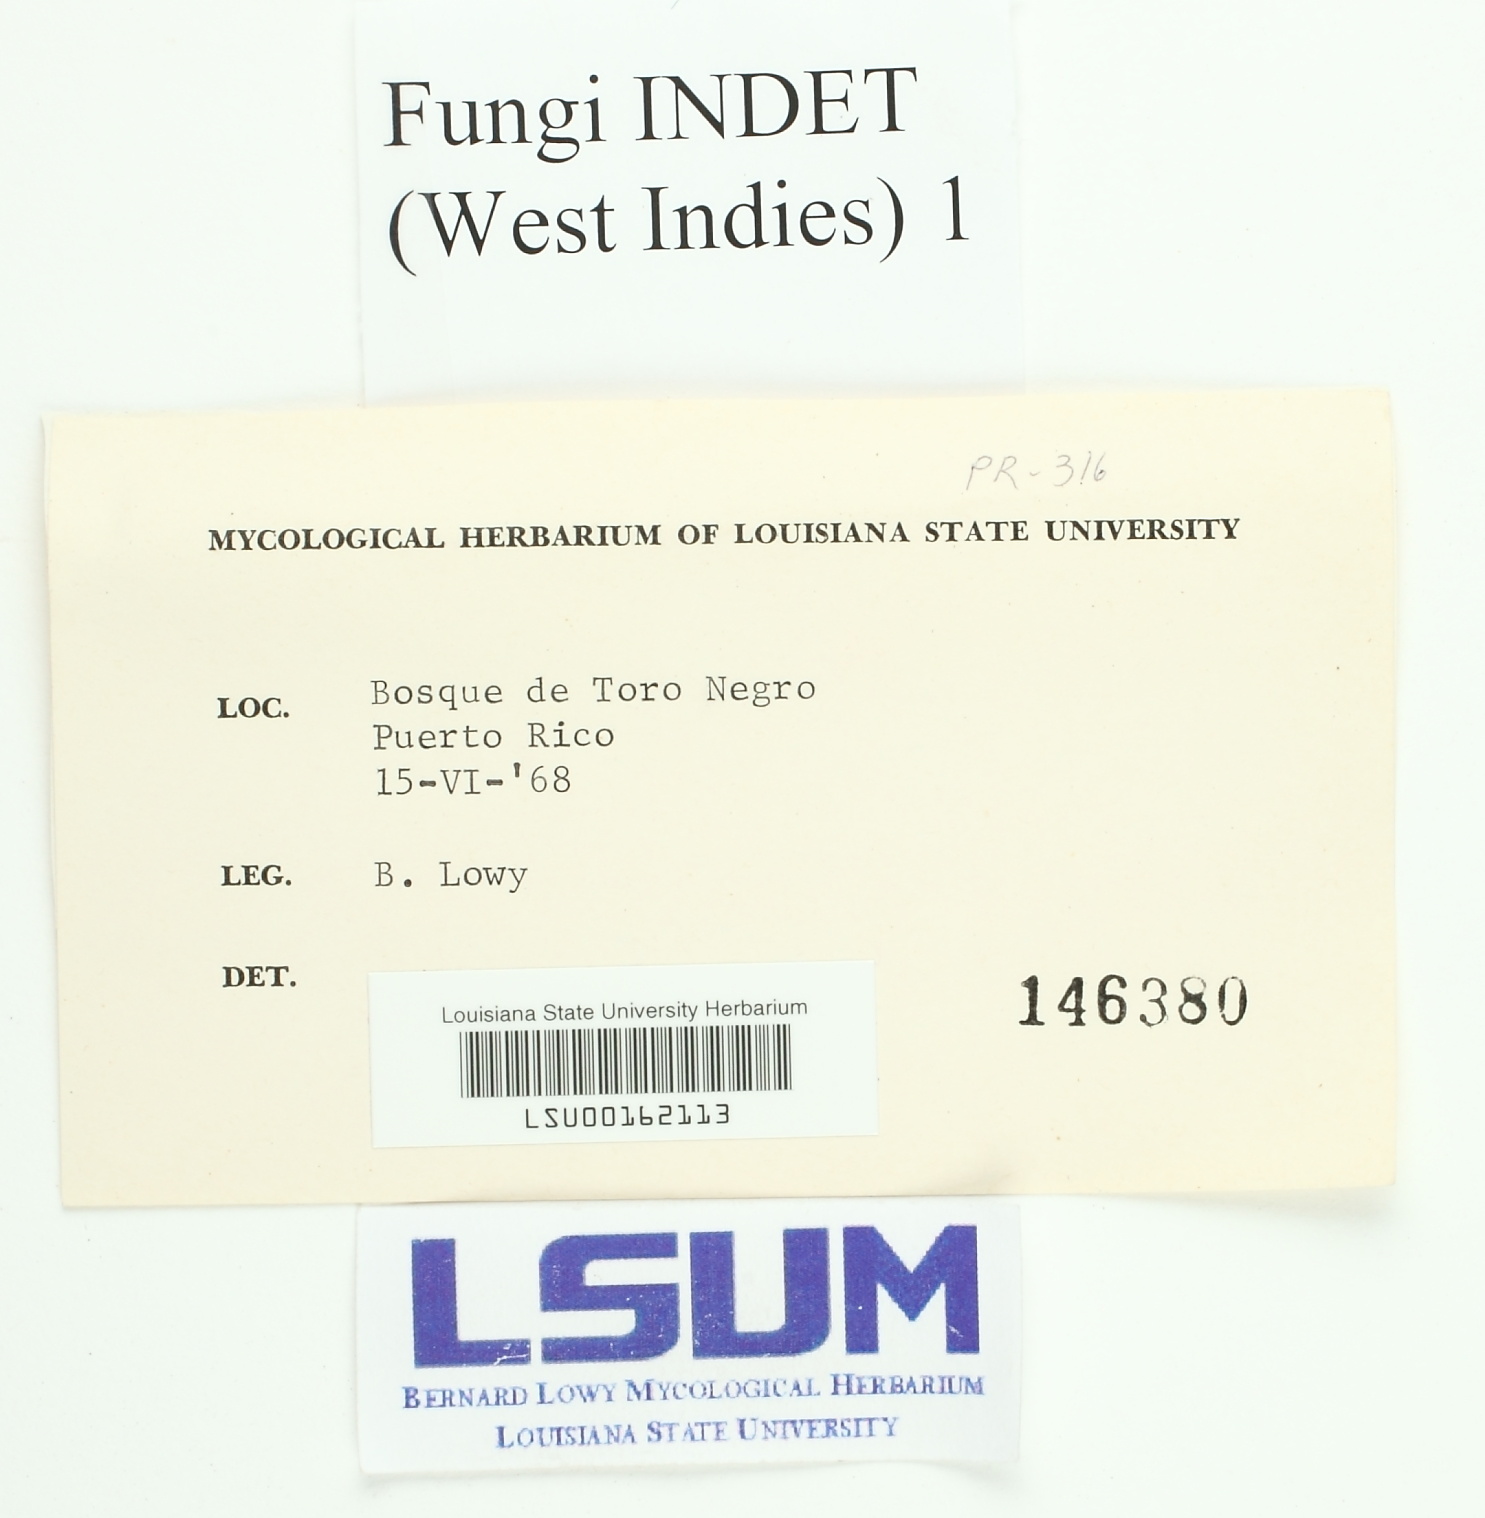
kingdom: Fungi
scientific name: Fungi
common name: Fungi
